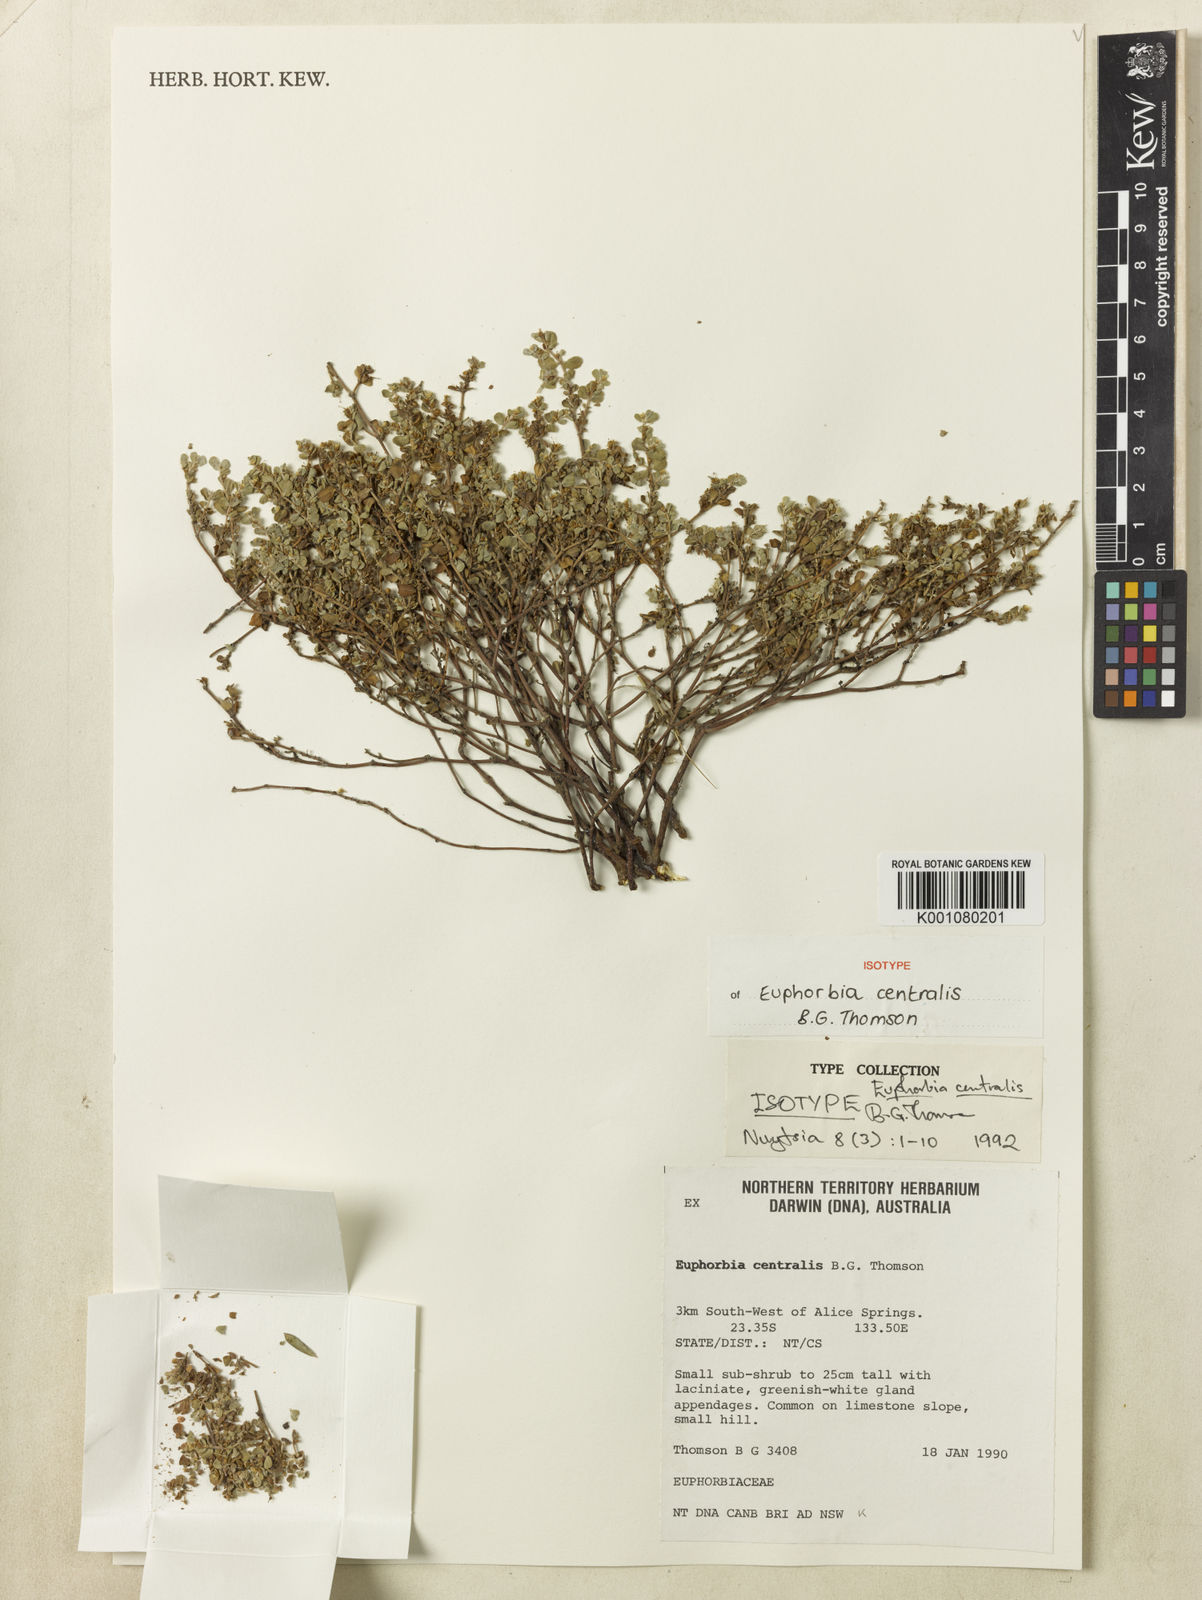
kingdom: Plantae
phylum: Tracheophyta
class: Magnoliopsida
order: Malpighiales
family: Euphorbiaceae
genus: Euphorbia
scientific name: Euphorbia centralis
